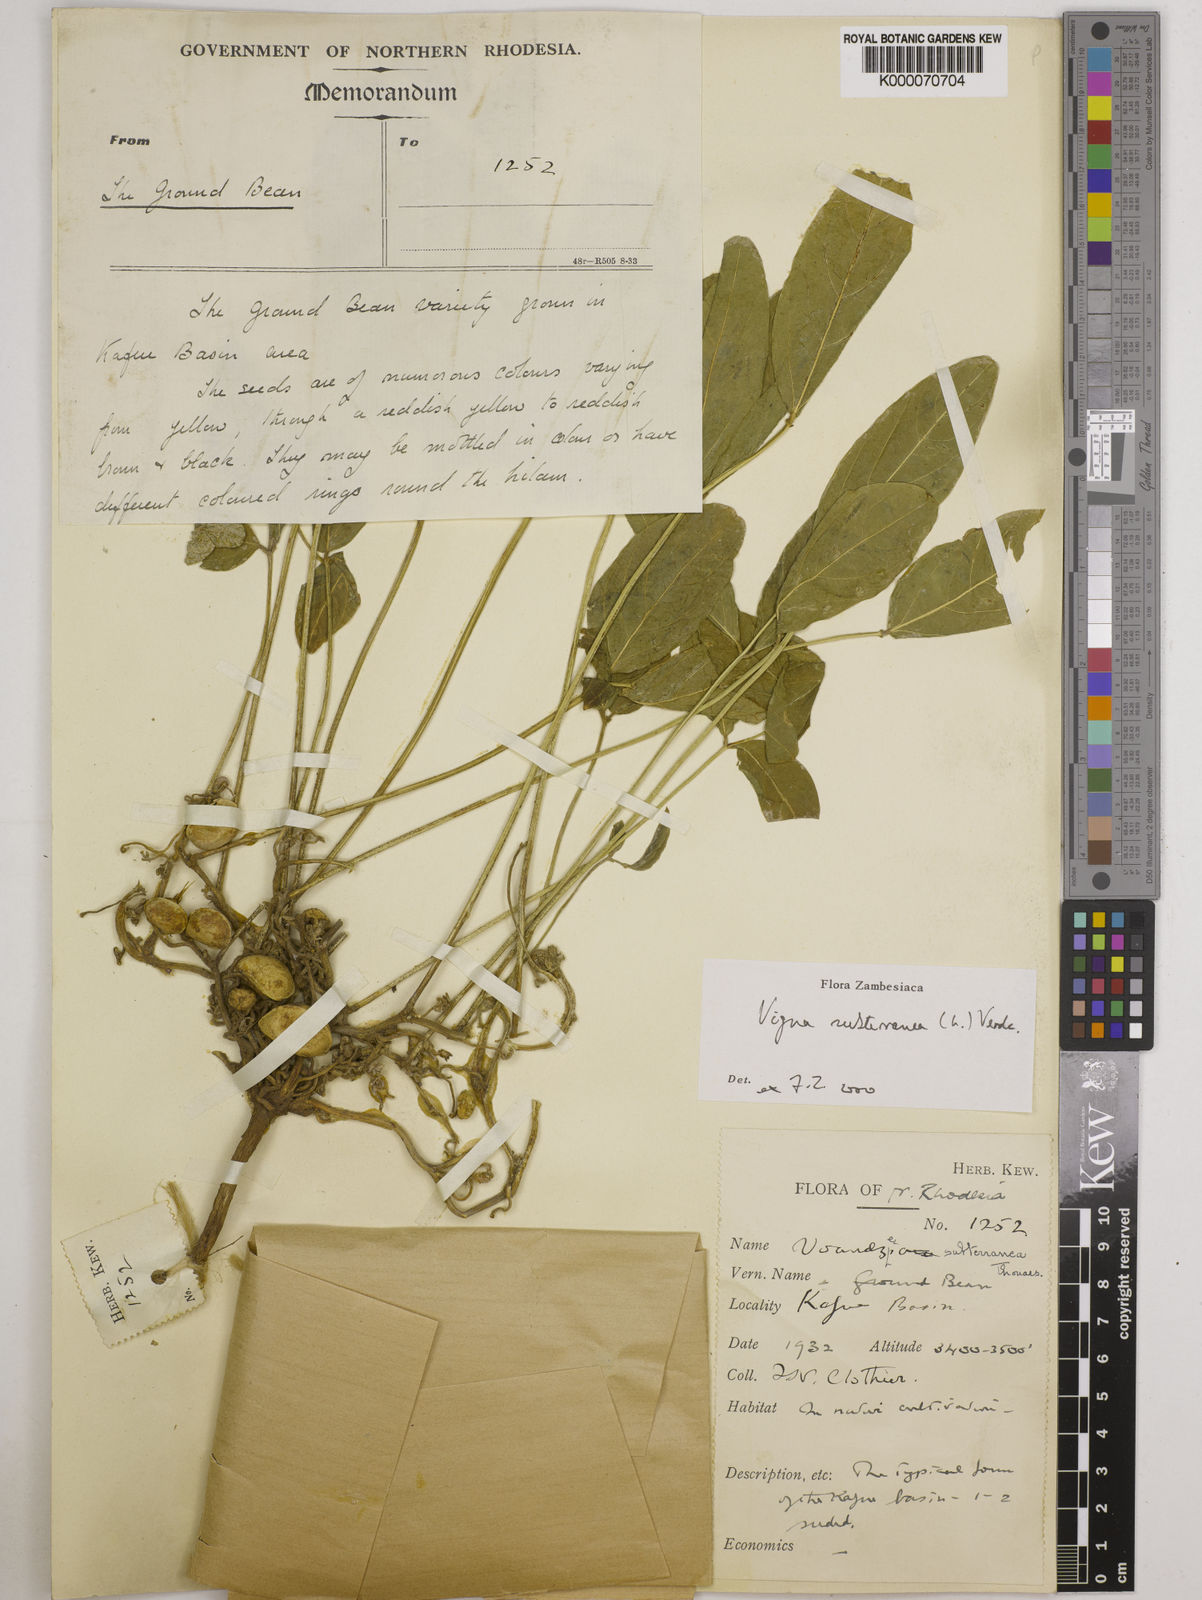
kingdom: Plantae
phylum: Tracheophyta
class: Magnoliopsida
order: Fabales
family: Fabaceae
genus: Vigna
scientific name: Vigna subterranea
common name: Bambara groundnut
